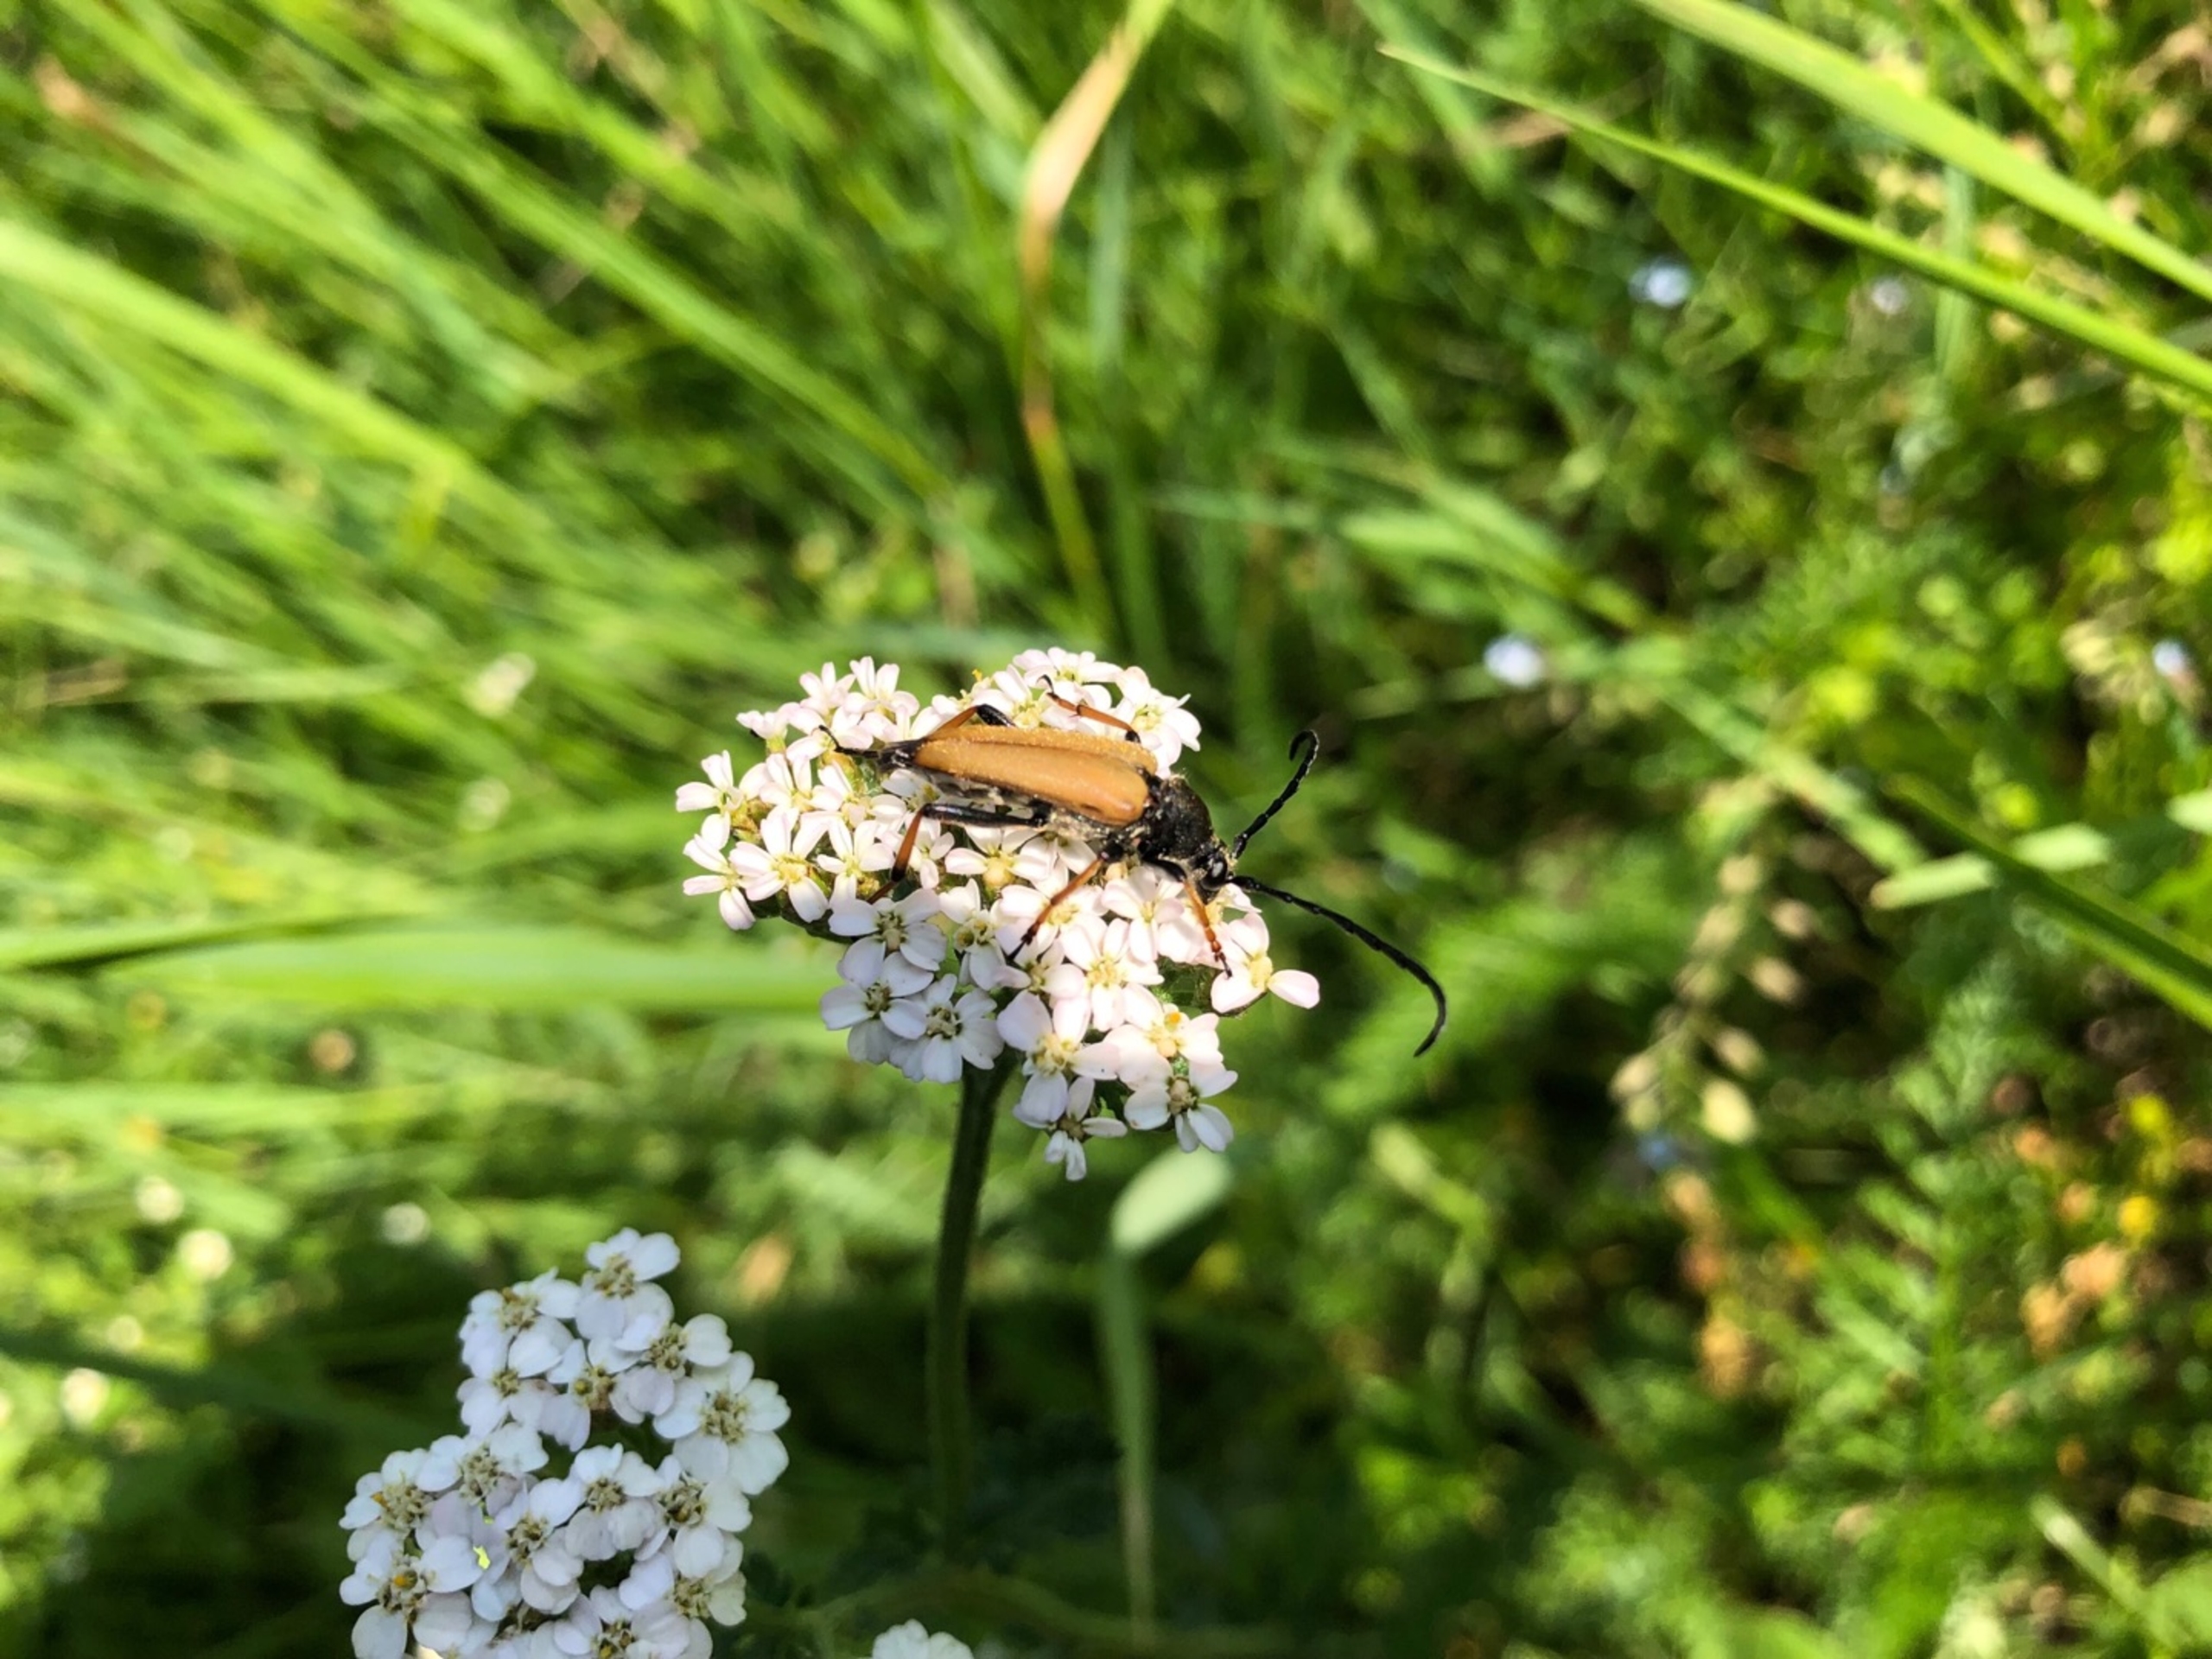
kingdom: Animalia
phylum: Arthropoda
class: Insecta
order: Coleoptera
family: Cerambycidae
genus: Stictoleptura
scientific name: Stictoleptura rubra
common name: Rød blomsterbuk
